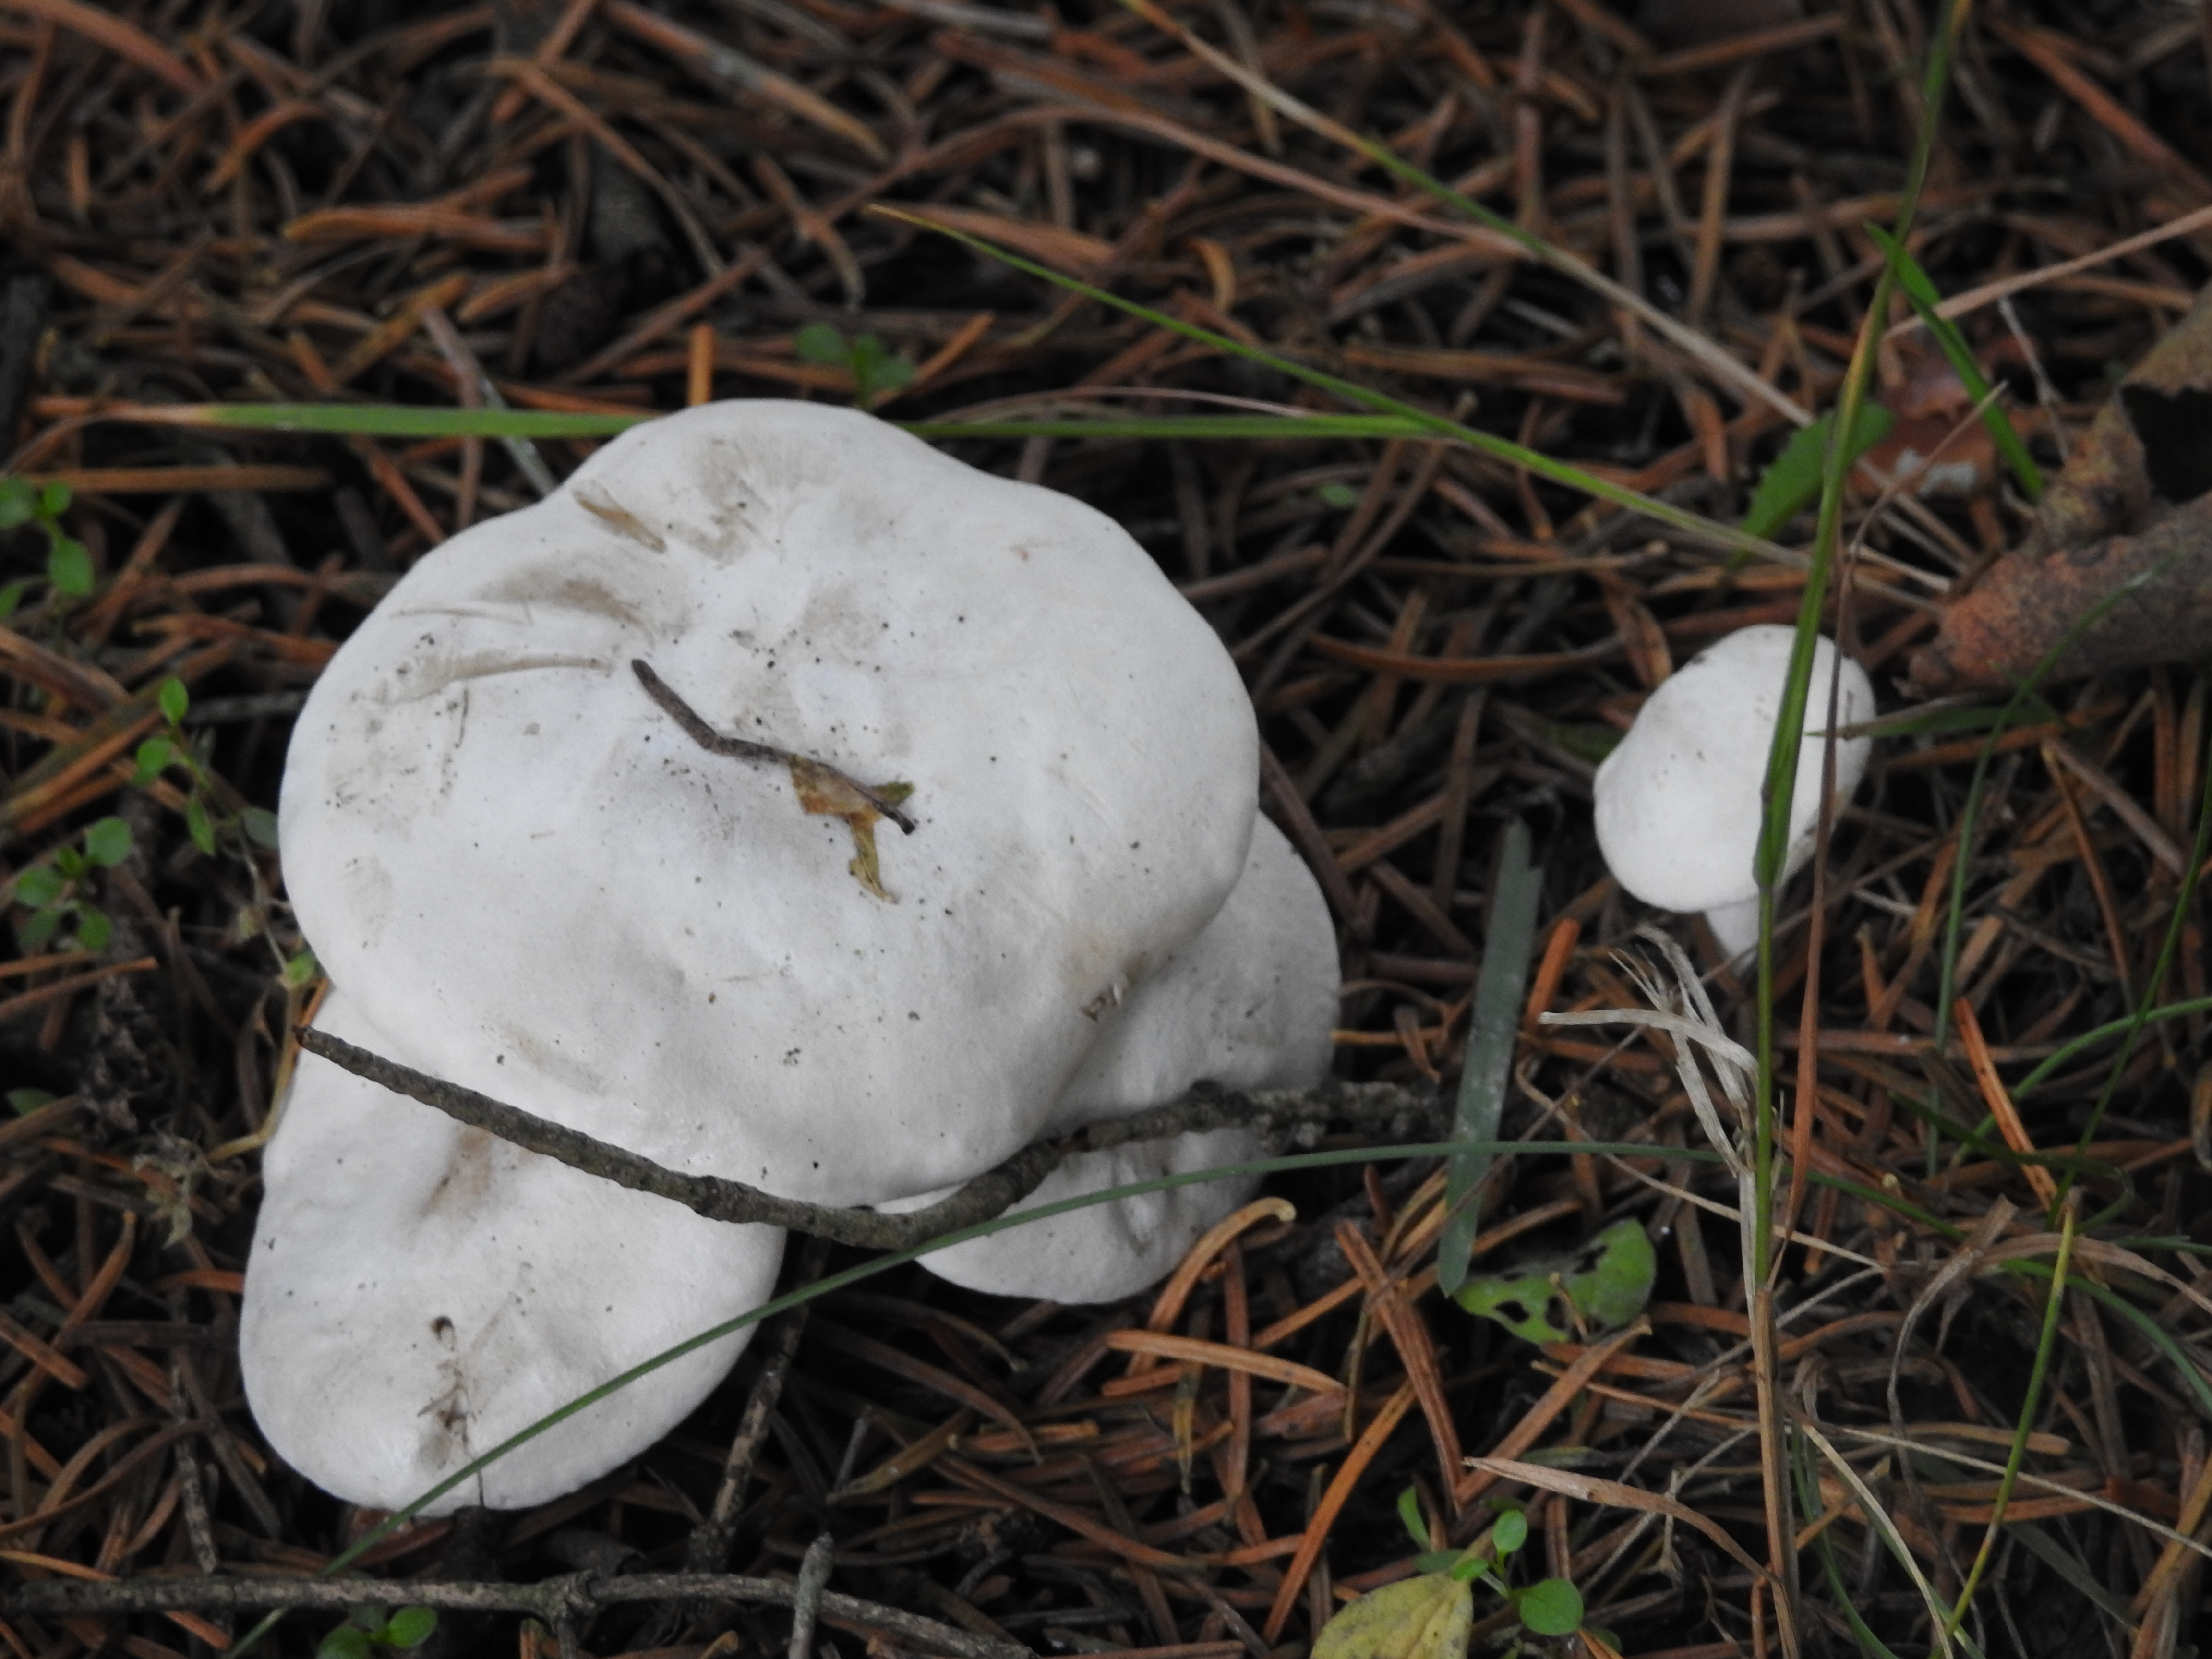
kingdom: Fungi
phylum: Basidiomycota
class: Agaricomycetes
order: Agaricales
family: Tricholomataceae
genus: Leucocybe
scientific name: Leucocybe connata
